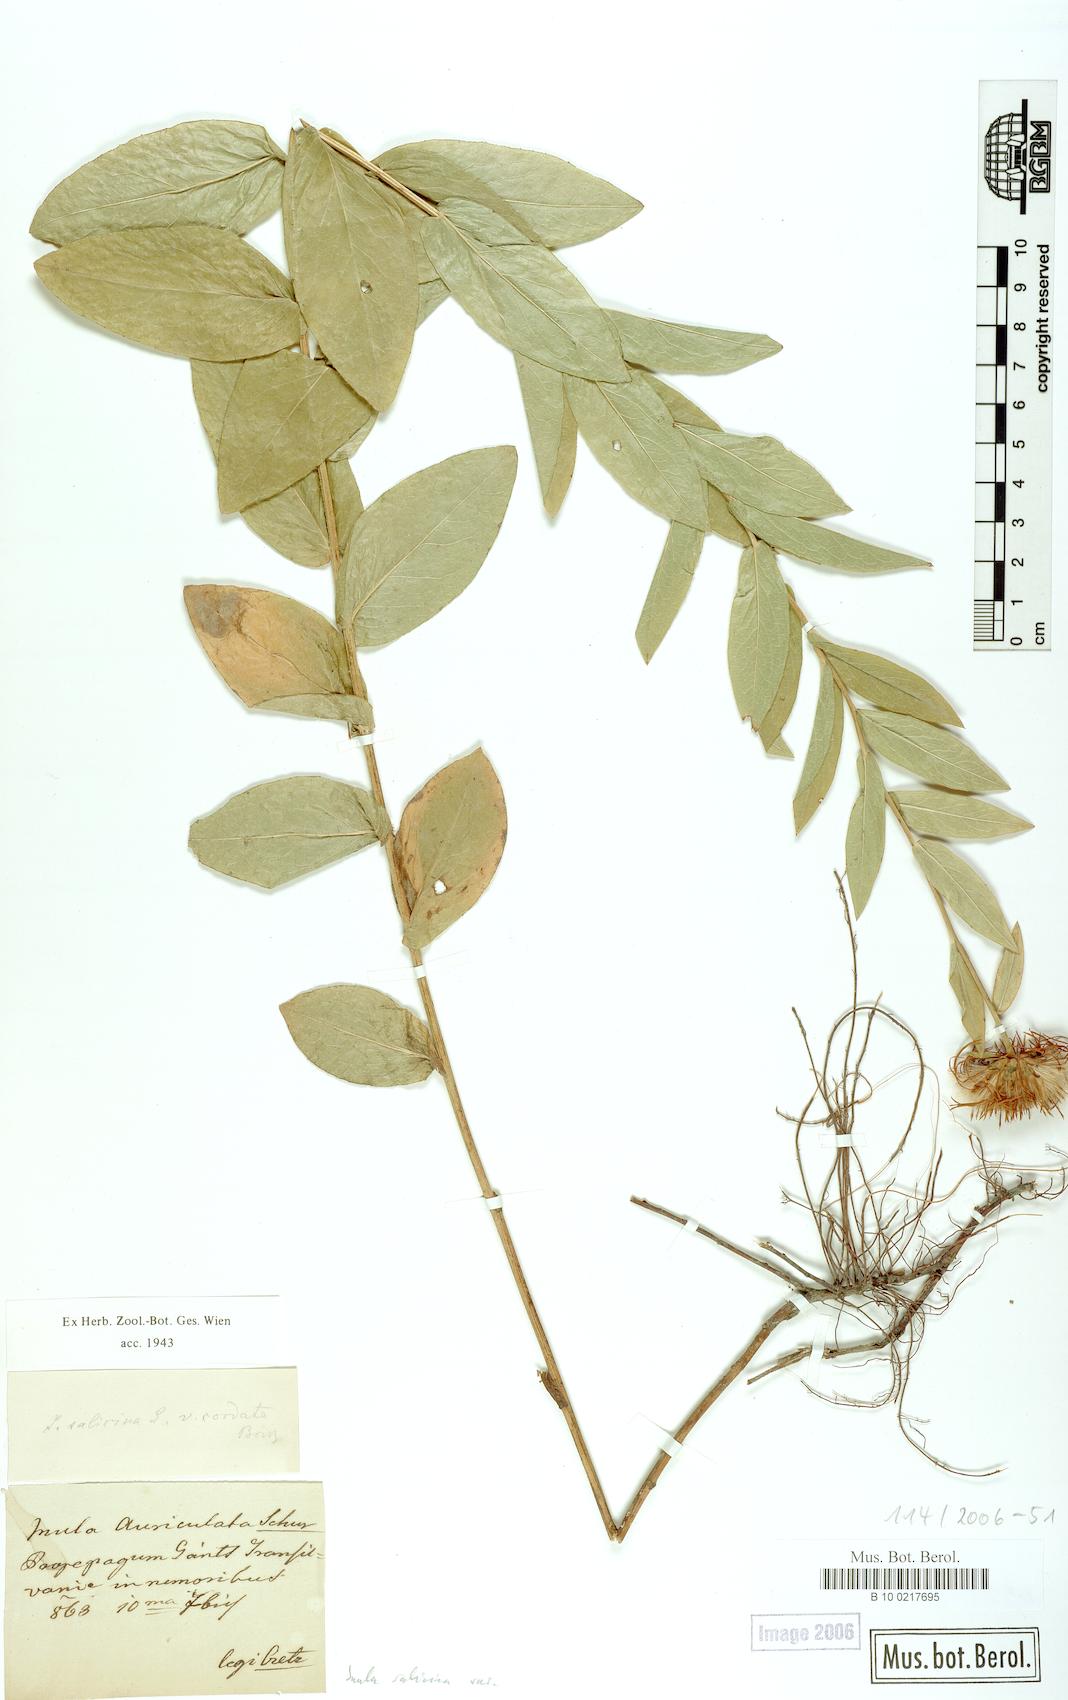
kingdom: Plantae
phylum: Tracheophyta
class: Magnoliopsida
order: Asterales
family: Asteraceae
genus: Pentanema
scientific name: Pentanema salicinum
